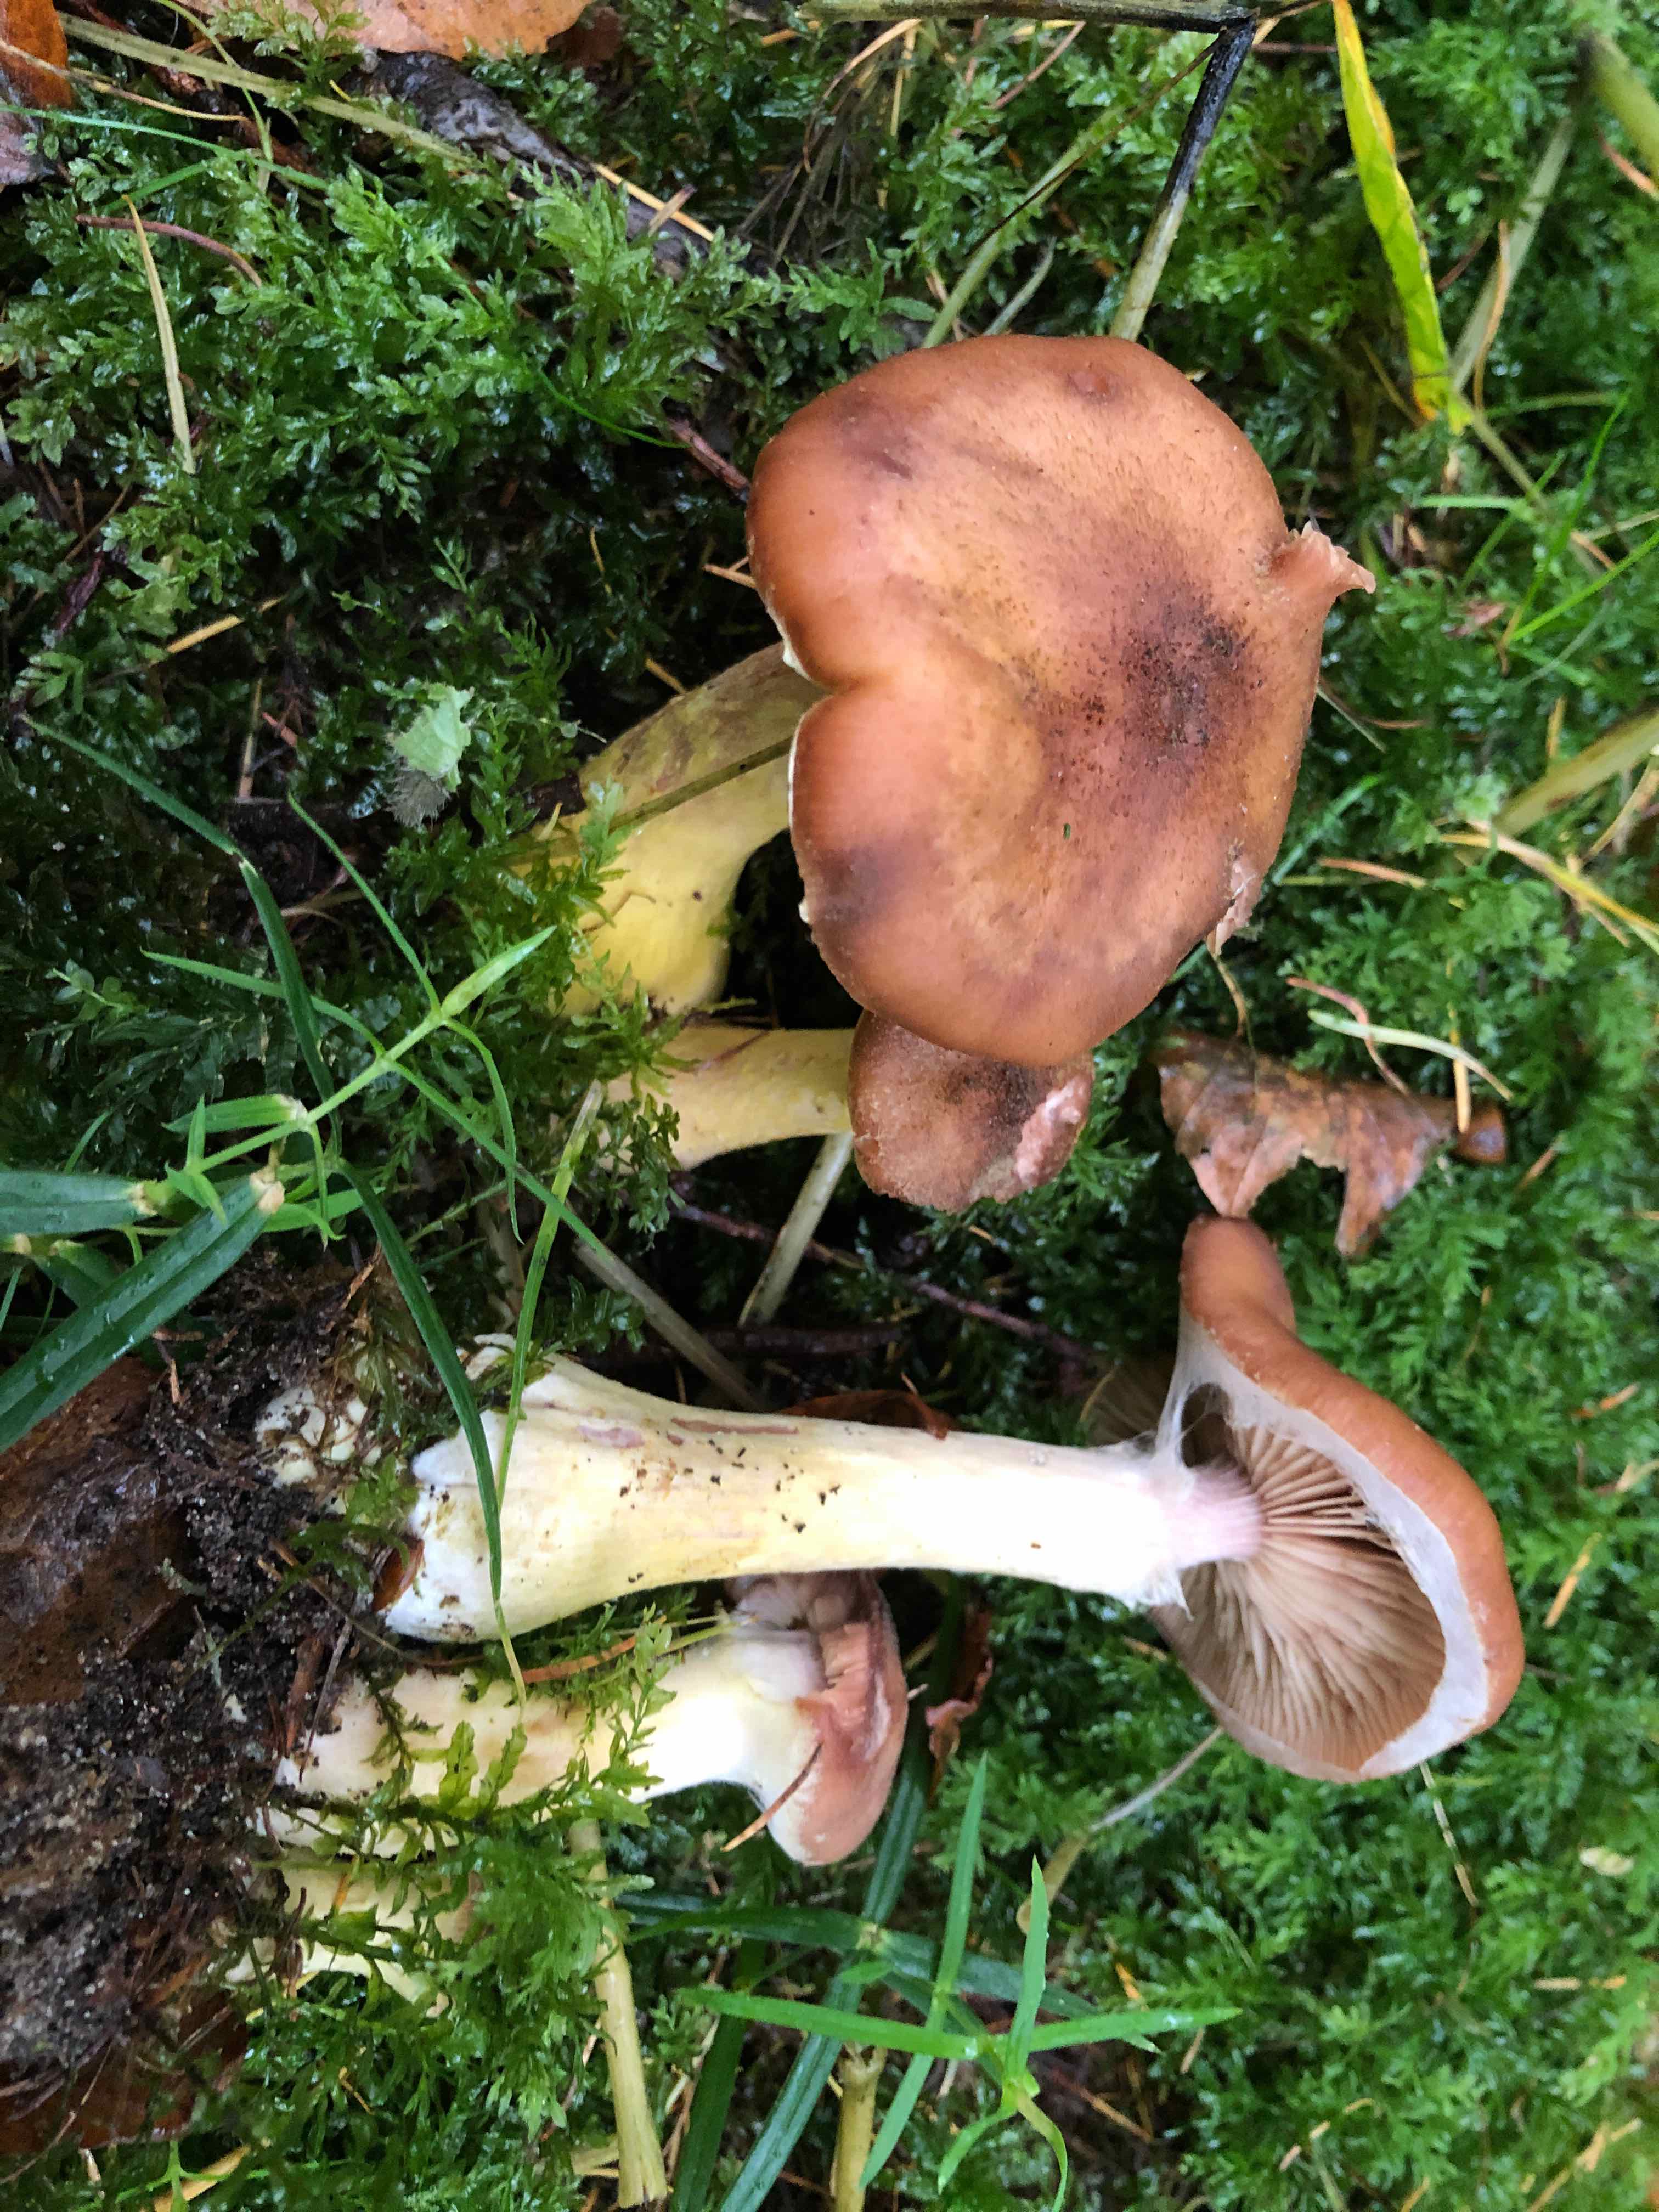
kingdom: Fungi
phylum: Basidiomycota
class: Agaricomycetes
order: Agaricales
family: Physalacriaceae
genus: Armillaria
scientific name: Armillaria lutea
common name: køllestokket honningsvamp
